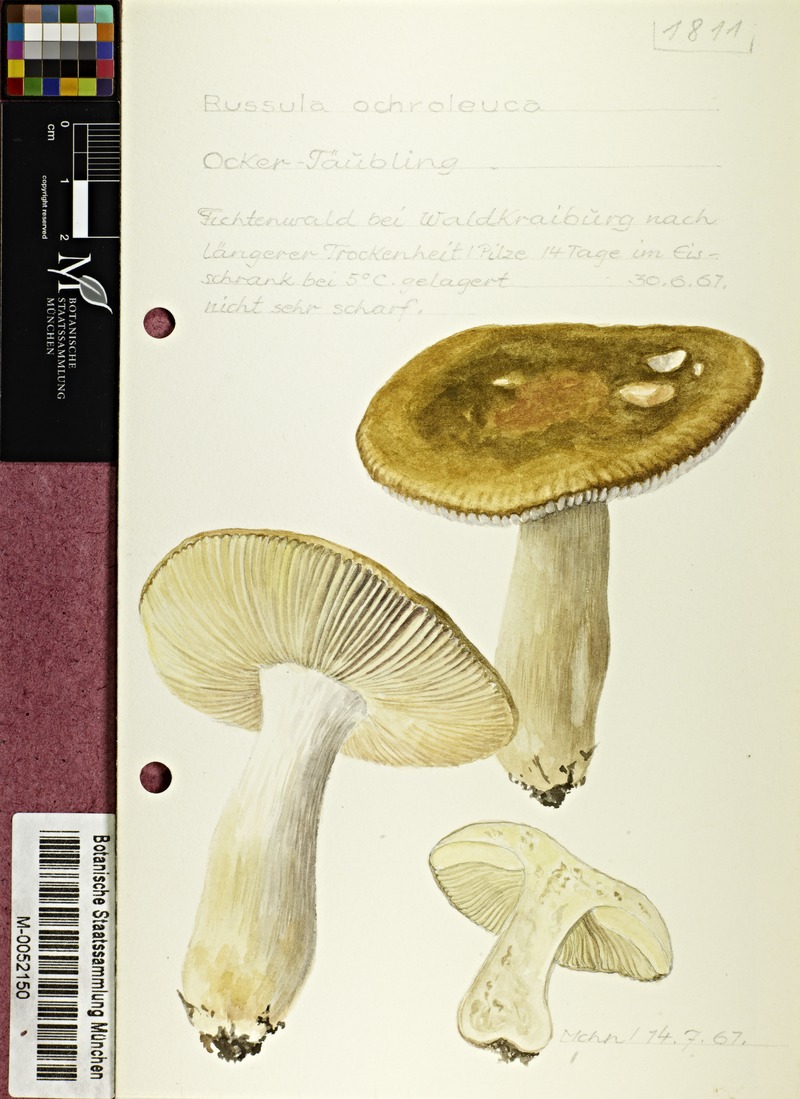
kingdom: Fungi
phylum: Basidiomycota
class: Agaricomycetes
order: Russulales
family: Russulaceae
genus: Russula
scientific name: Russula ochroleuca
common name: Common yellow russula
